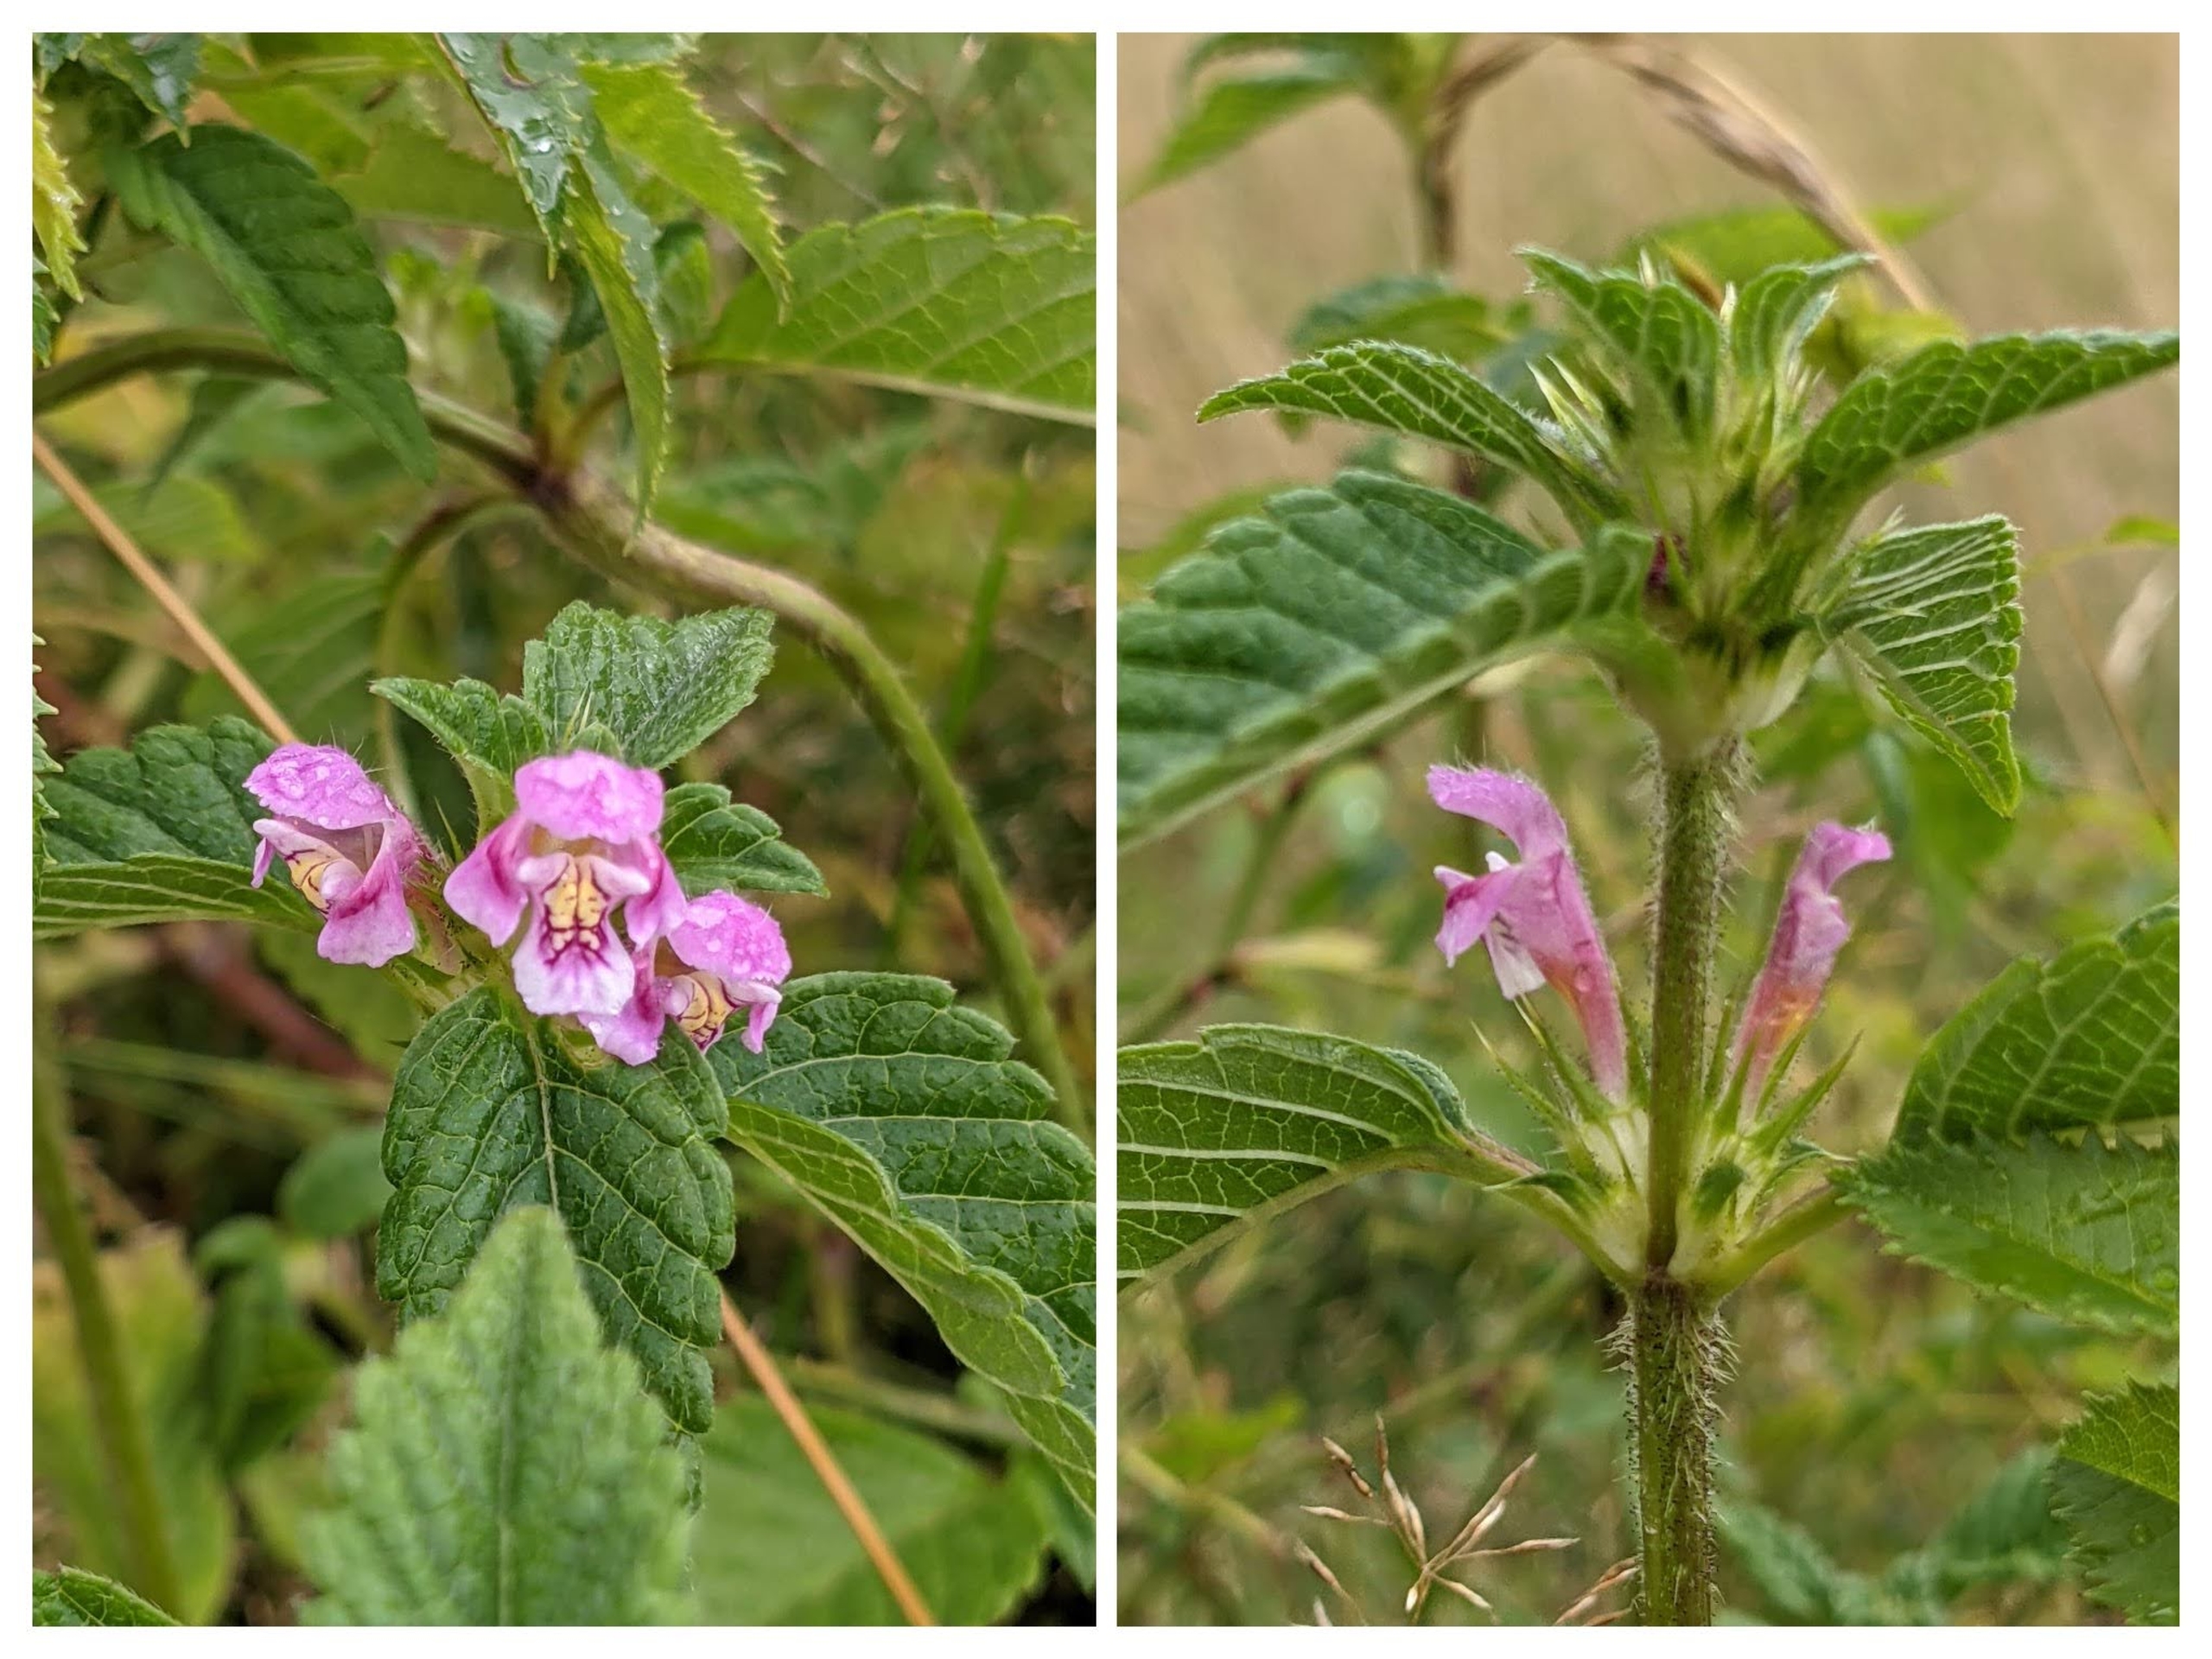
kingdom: Plantae
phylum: Tracheophyta
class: Magnoliopsida
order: Lamiales
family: Lamiaceae
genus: Galeopsis
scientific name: Galeopsis tetrahit
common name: Almindelig hanekro
